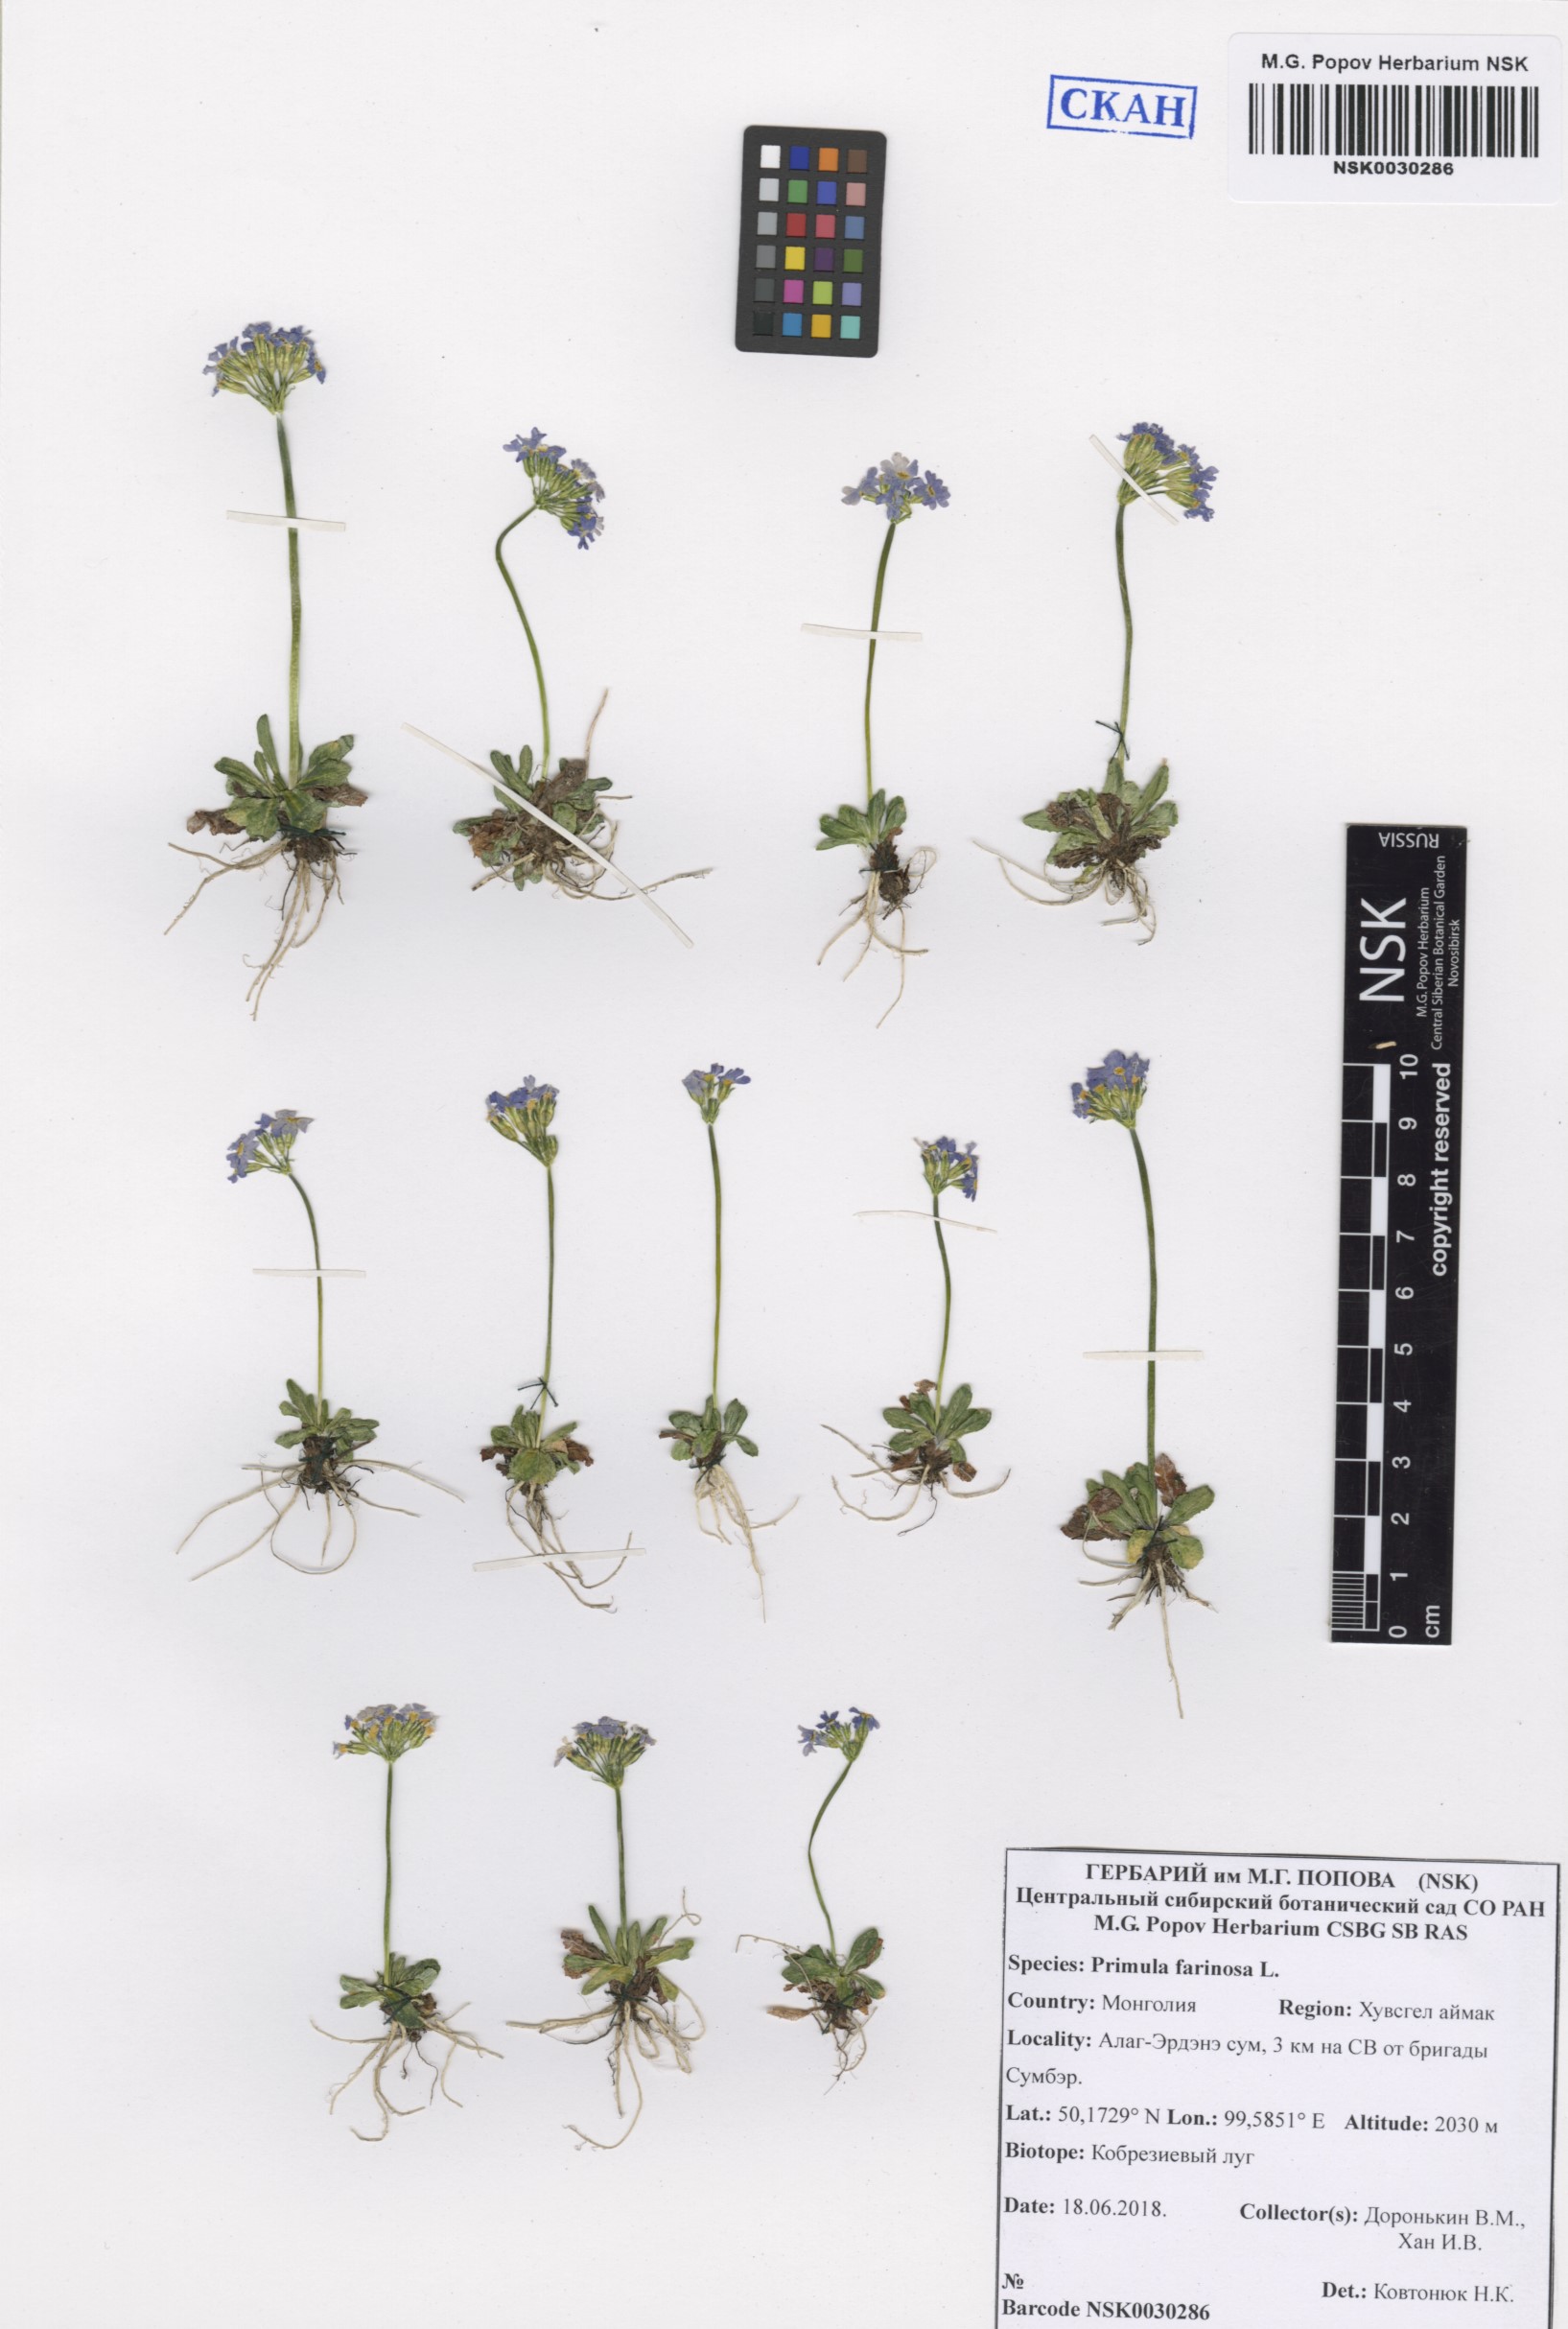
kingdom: Plantae
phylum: Tracheophyta
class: Magnoliopsida
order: Ericales
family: Primulaceae
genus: Primula
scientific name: Primula farinosa
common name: Bird's-eye primrose
